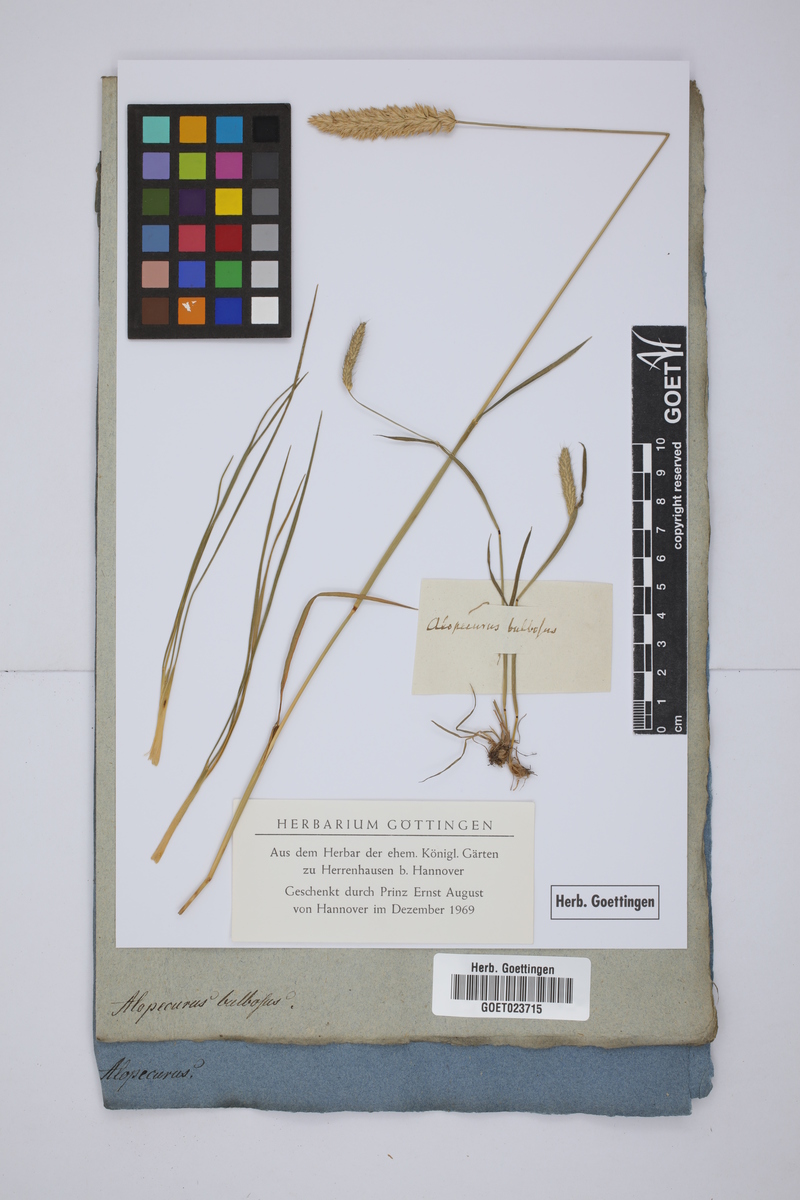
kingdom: Plantae
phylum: Tracheophyta
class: Liliopsida
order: Poales
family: Poaceae
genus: Alopecurus
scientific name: Alopecurus bulbosus
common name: Bulbous foxtail
